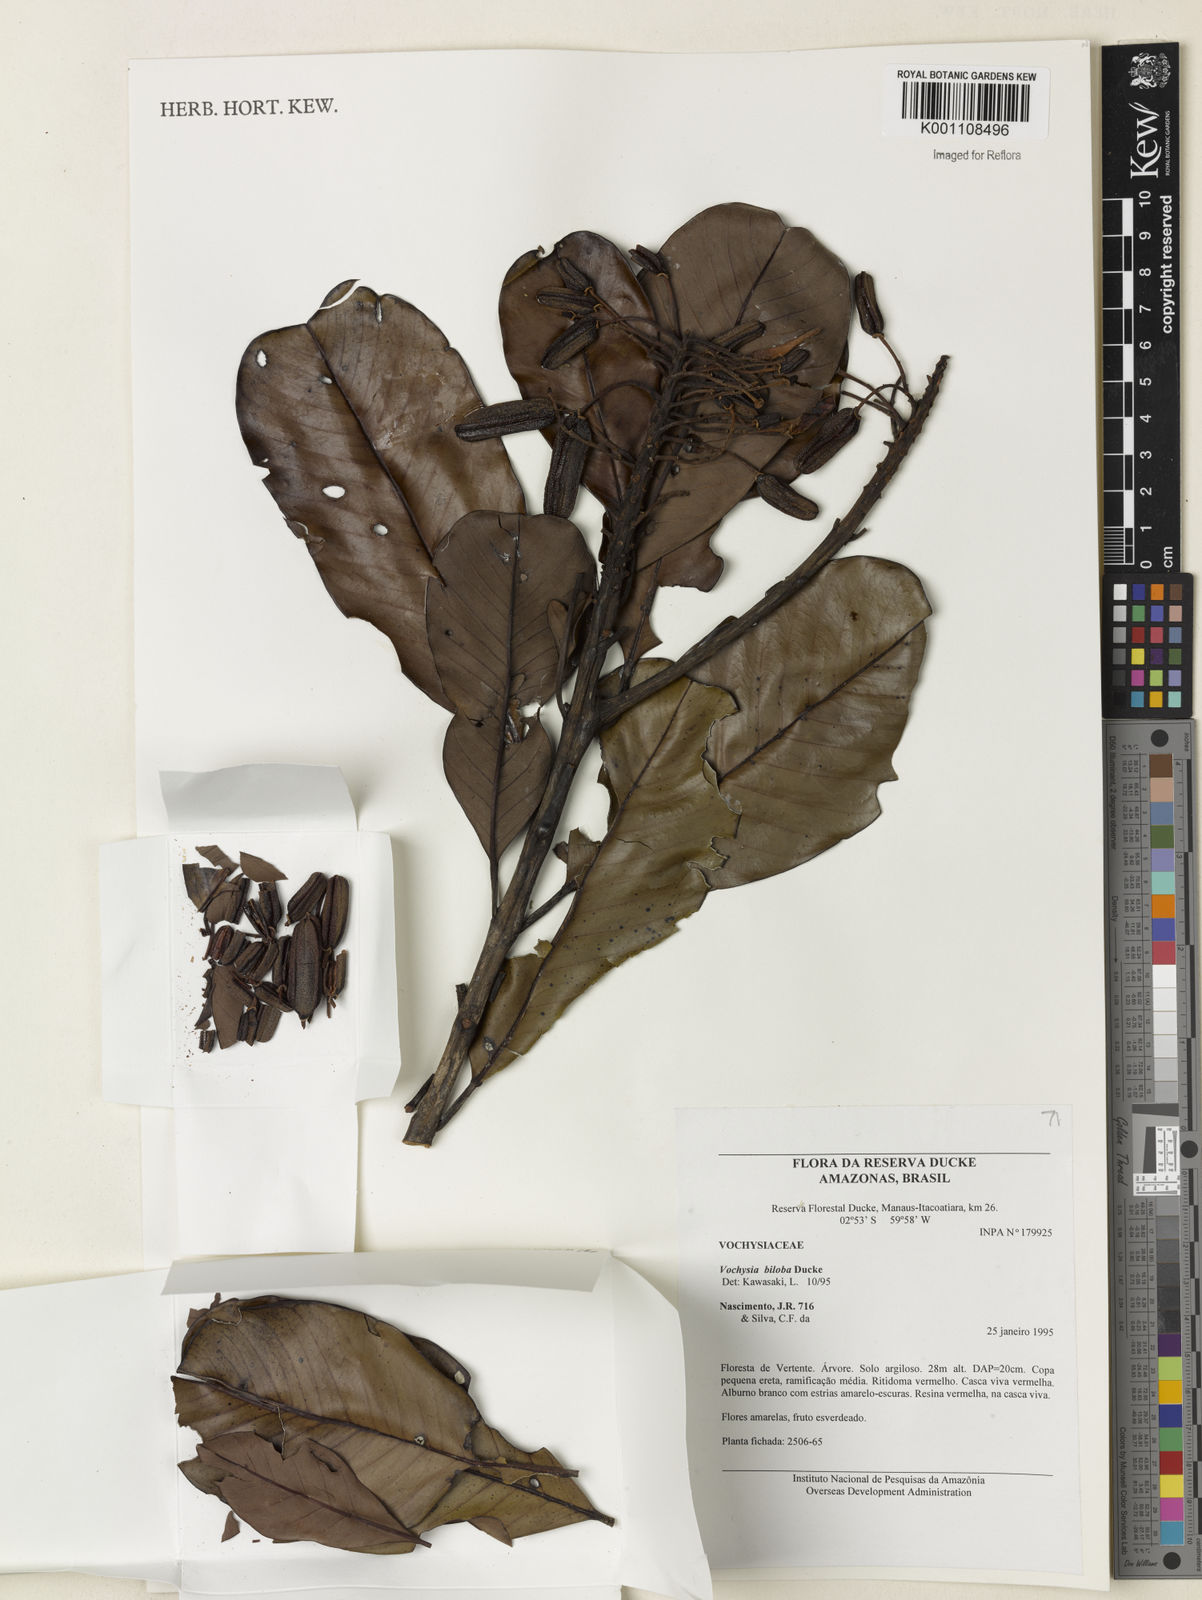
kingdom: Plantae
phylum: Tracheophyta
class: Magnoliopsida
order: Myrtales
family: Vochysiaceae
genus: Vochysia
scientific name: Vochysia biloba
